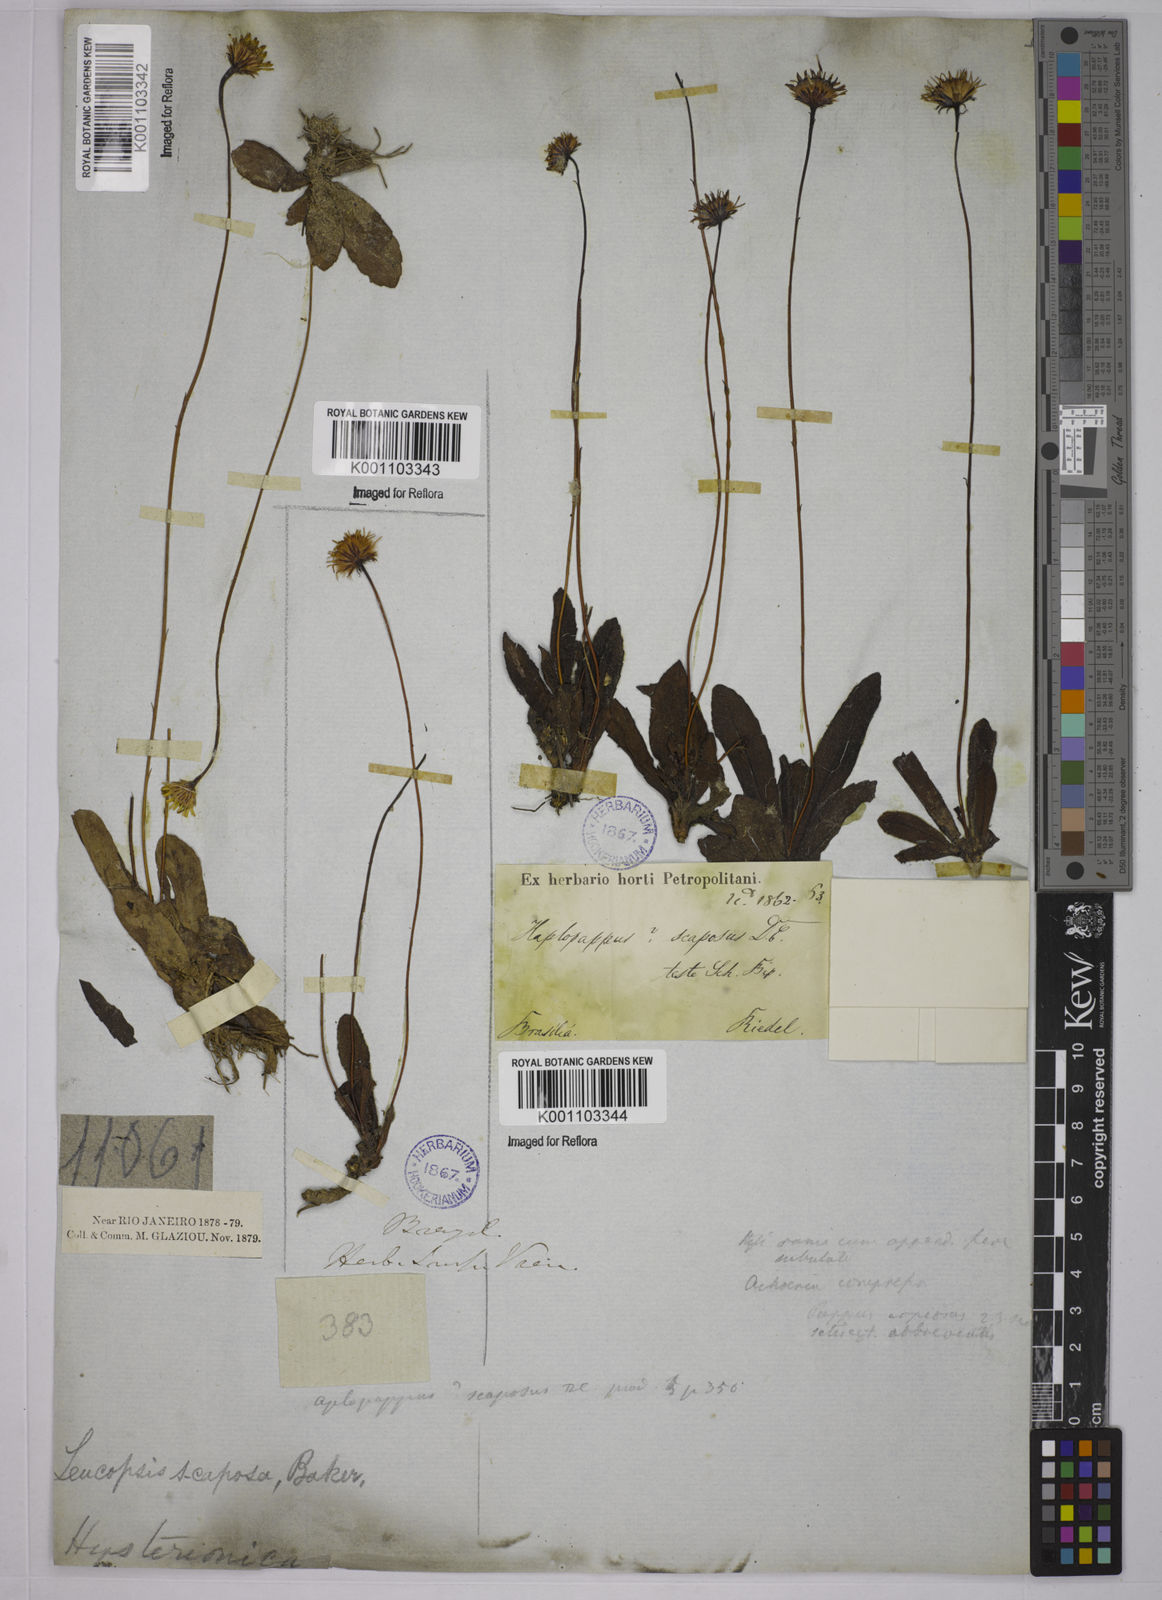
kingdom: Plantae
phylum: Tracheophyta
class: Magnoliopsida
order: Asterales
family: Asteraceae
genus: Inulopsis
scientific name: Inulopsis scaposa
